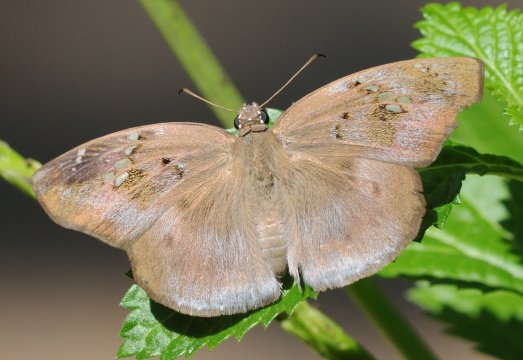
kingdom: Animalia
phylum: Arthropoda
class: Insecta
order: Lepidoptera
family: Hesperiidae
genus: Tagiades
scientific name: Tagiades flesus
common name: Clouded Flat
